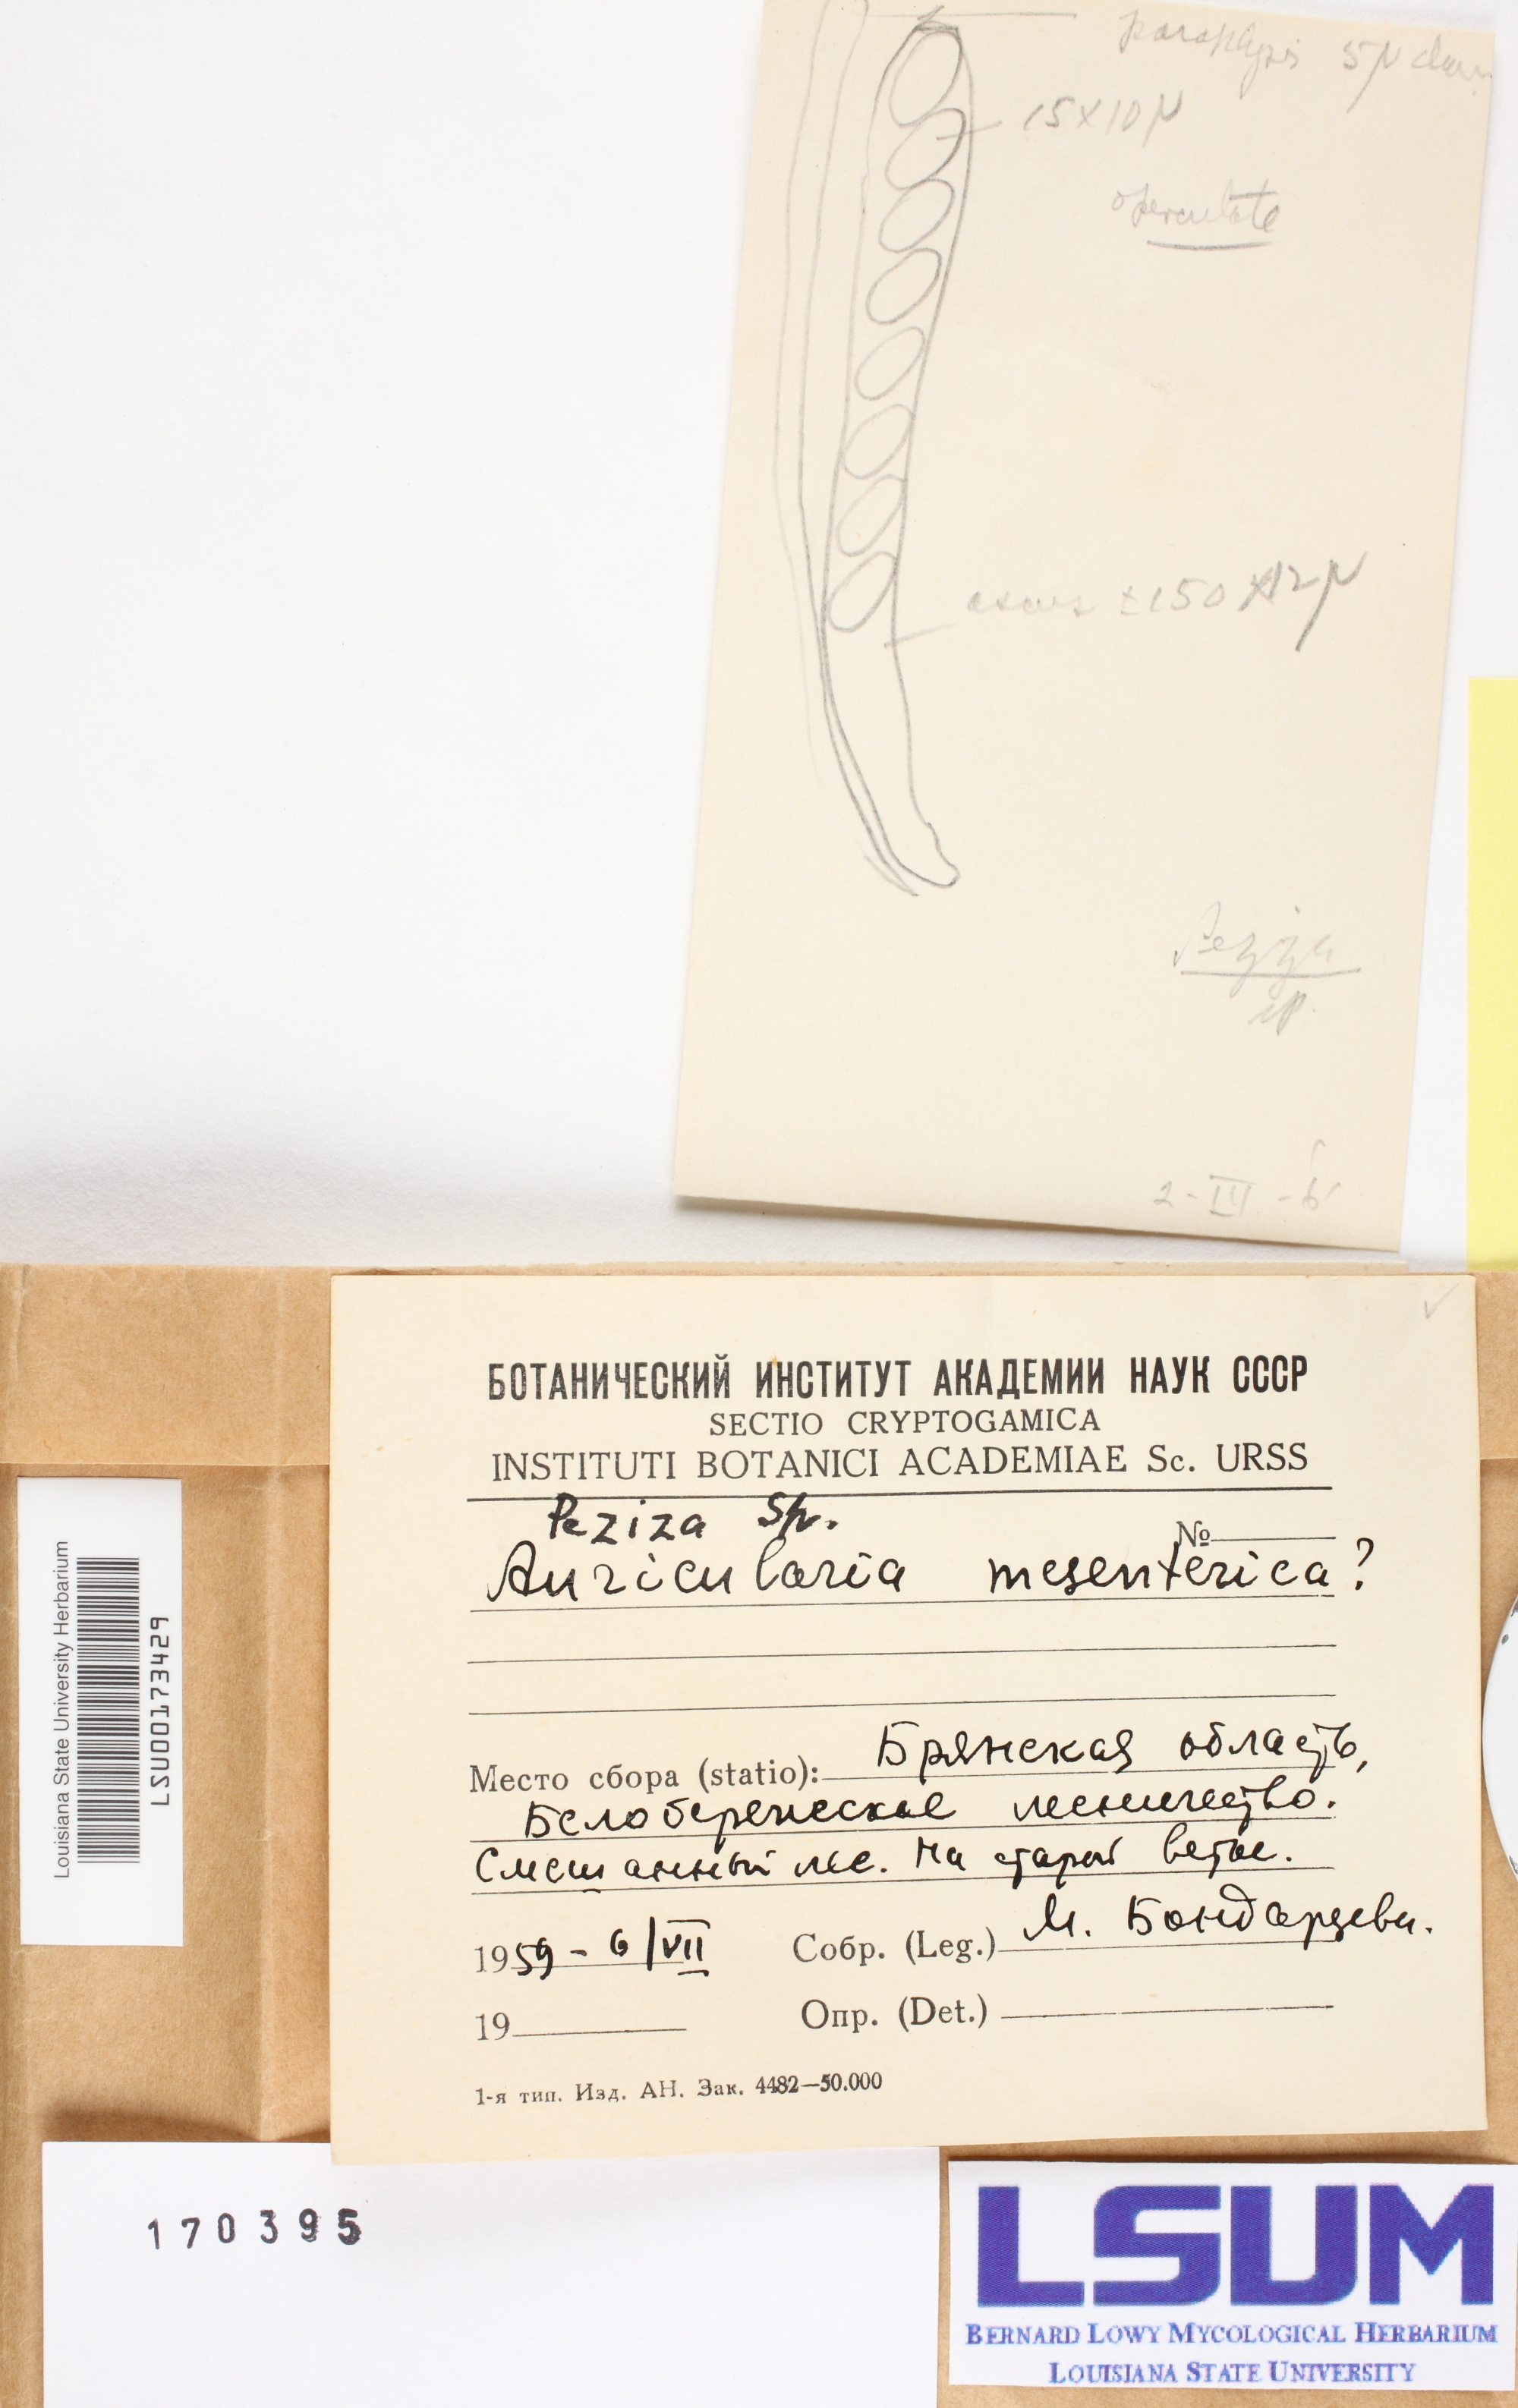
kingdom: Fungi
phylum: Basidiomycota
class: Agaricomycetes
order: Auriculariales
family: Auriculariaceae
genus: Auricularia
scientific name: Auricularia mesenterica
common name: Tripe fungus
